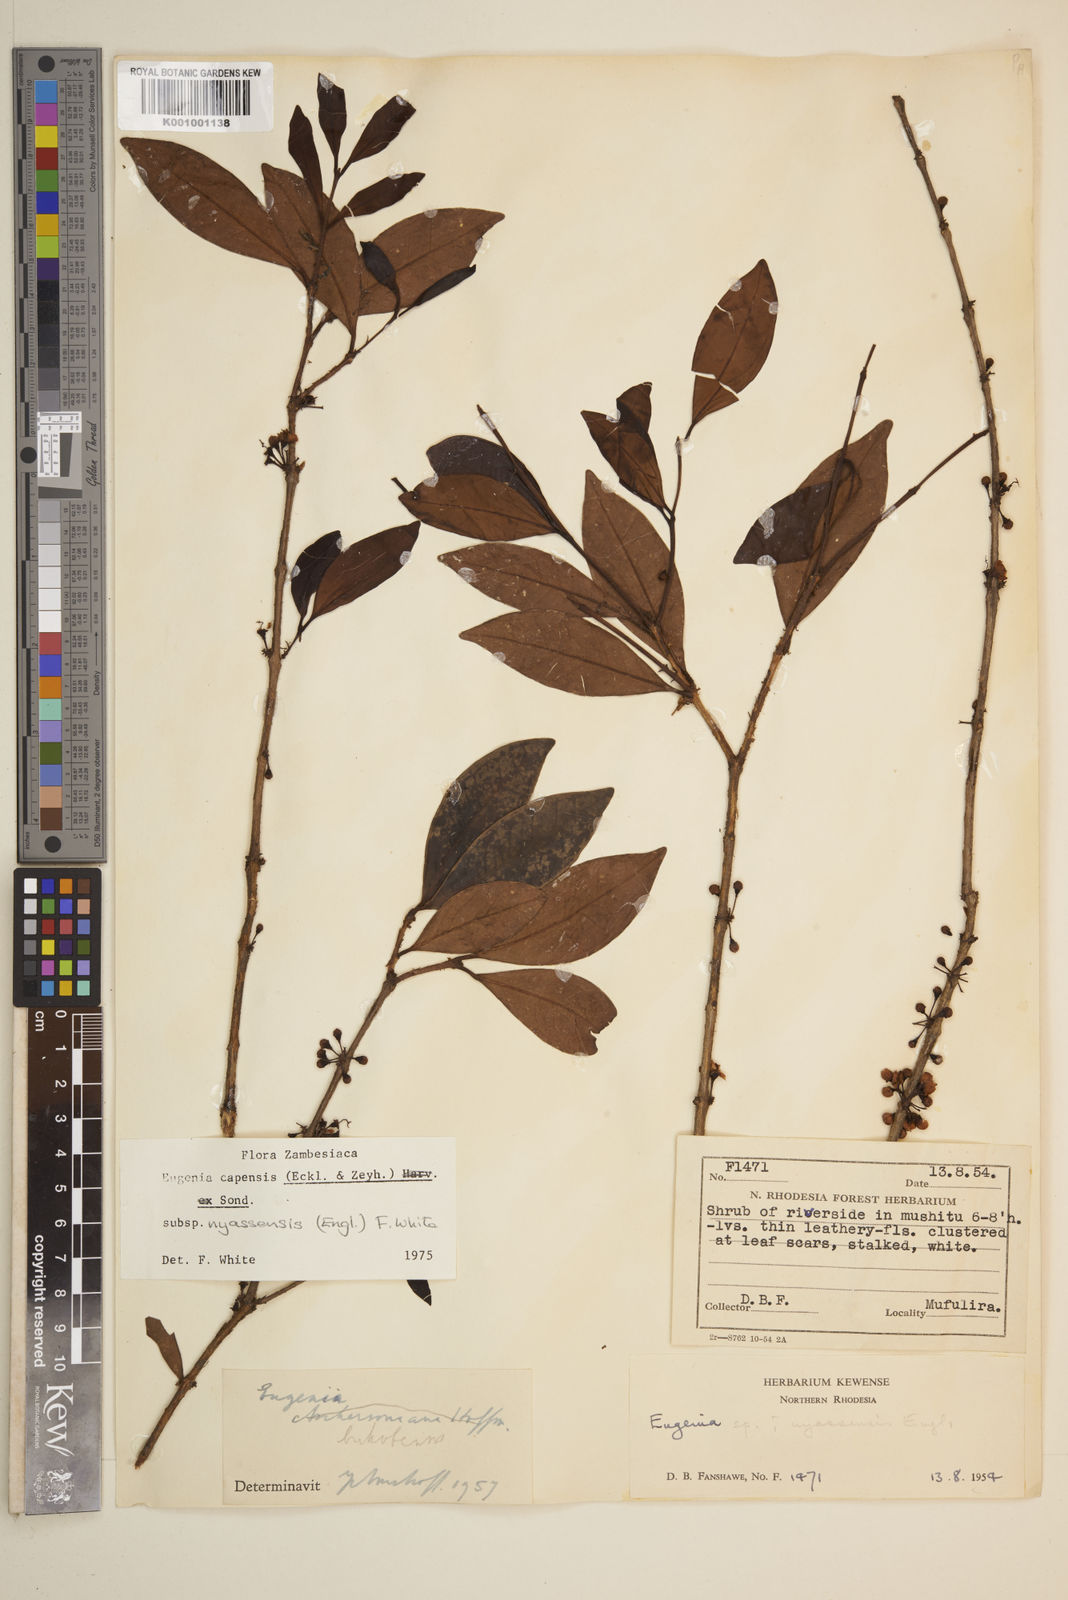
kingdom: Plantae
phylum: Tracheophyta
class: Magnoliopsida
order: Myrtales
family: Myrtaceae
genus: Eugenia
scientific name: Eugenia capensis
